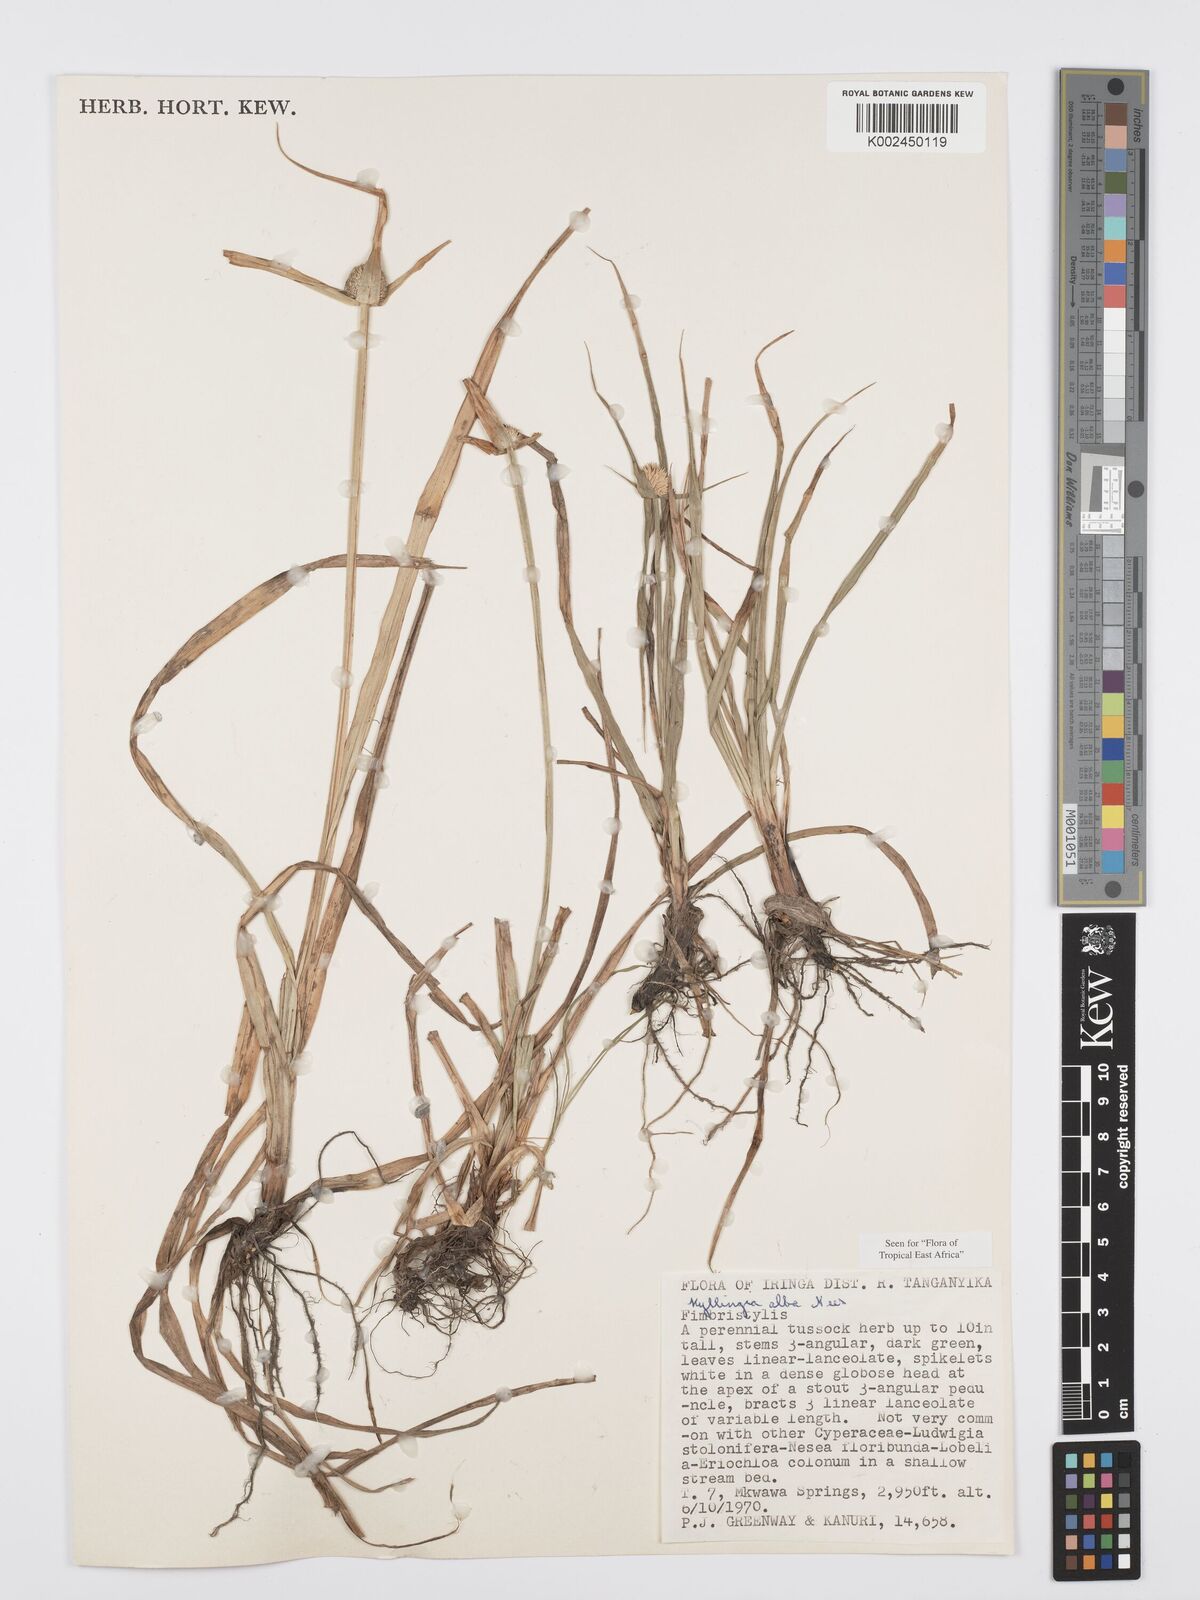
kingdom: Plantae
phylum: Tracheophyta
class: Liliopsida
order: Poales
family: Cyperaceae
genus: Cyperus
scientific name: Cyperus
